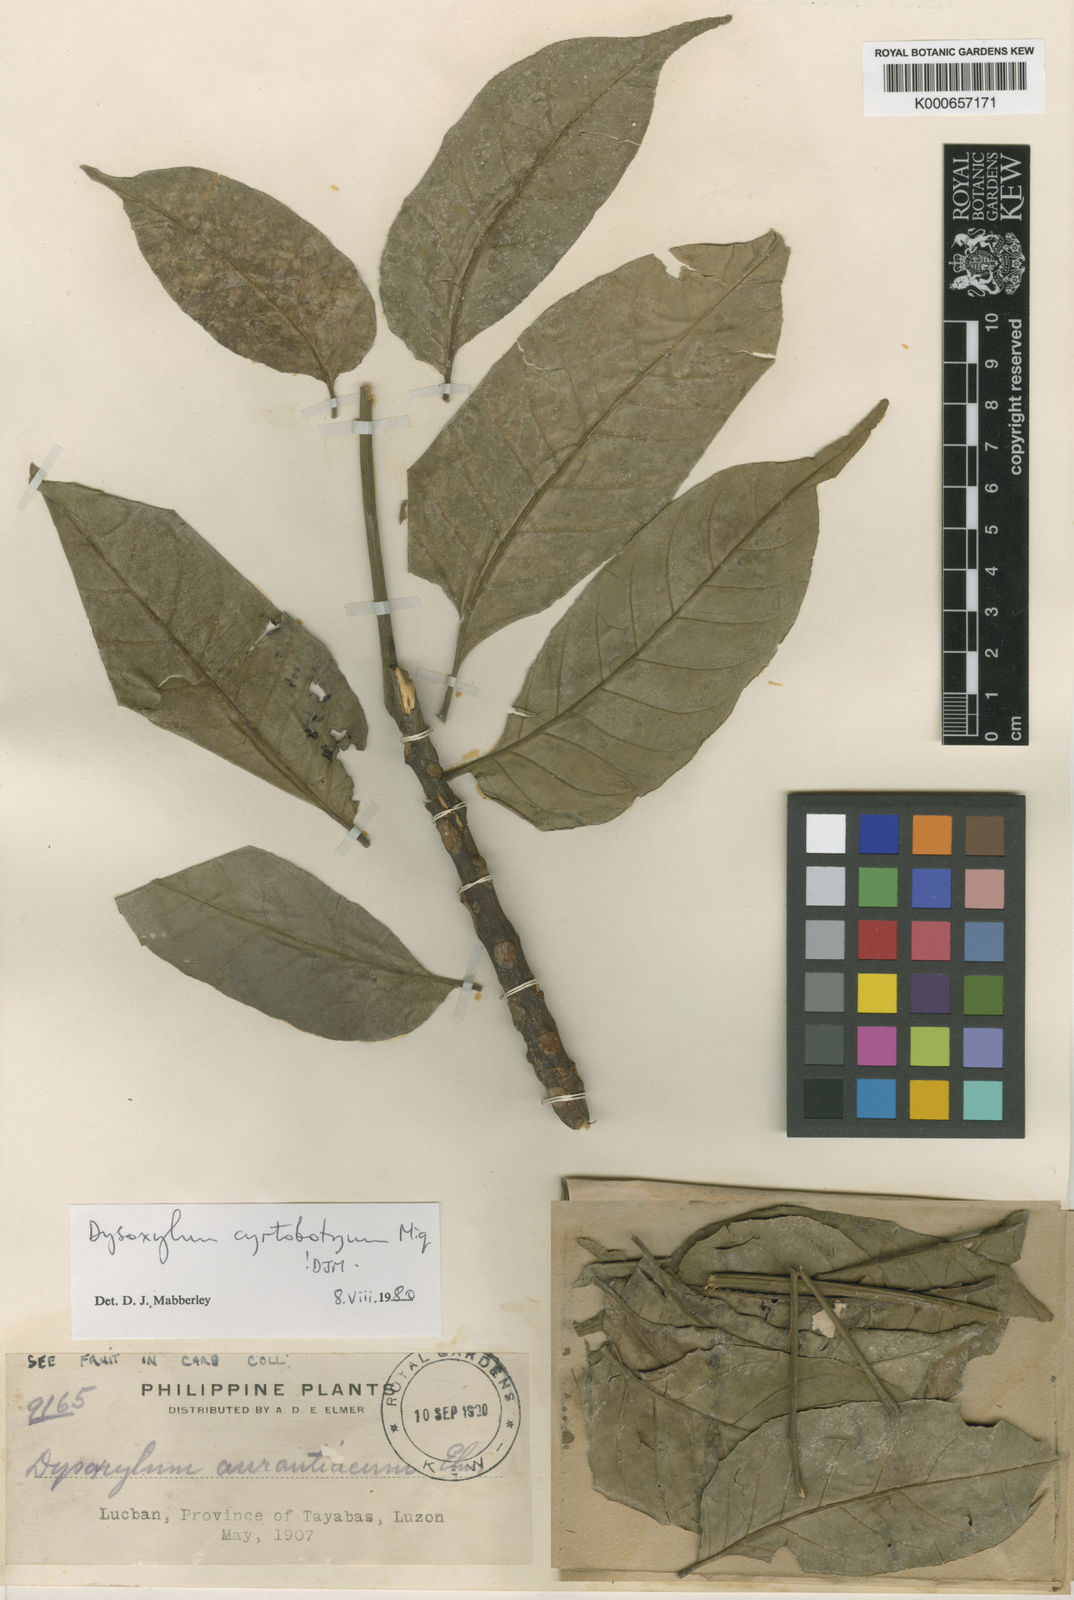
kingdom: Plantae
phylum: Tracheophyta
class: Magnoliopsida
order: Sapindales
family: Meliaceae
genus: Dysoxylum
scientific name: Dysoxylum cyrtobotryum
